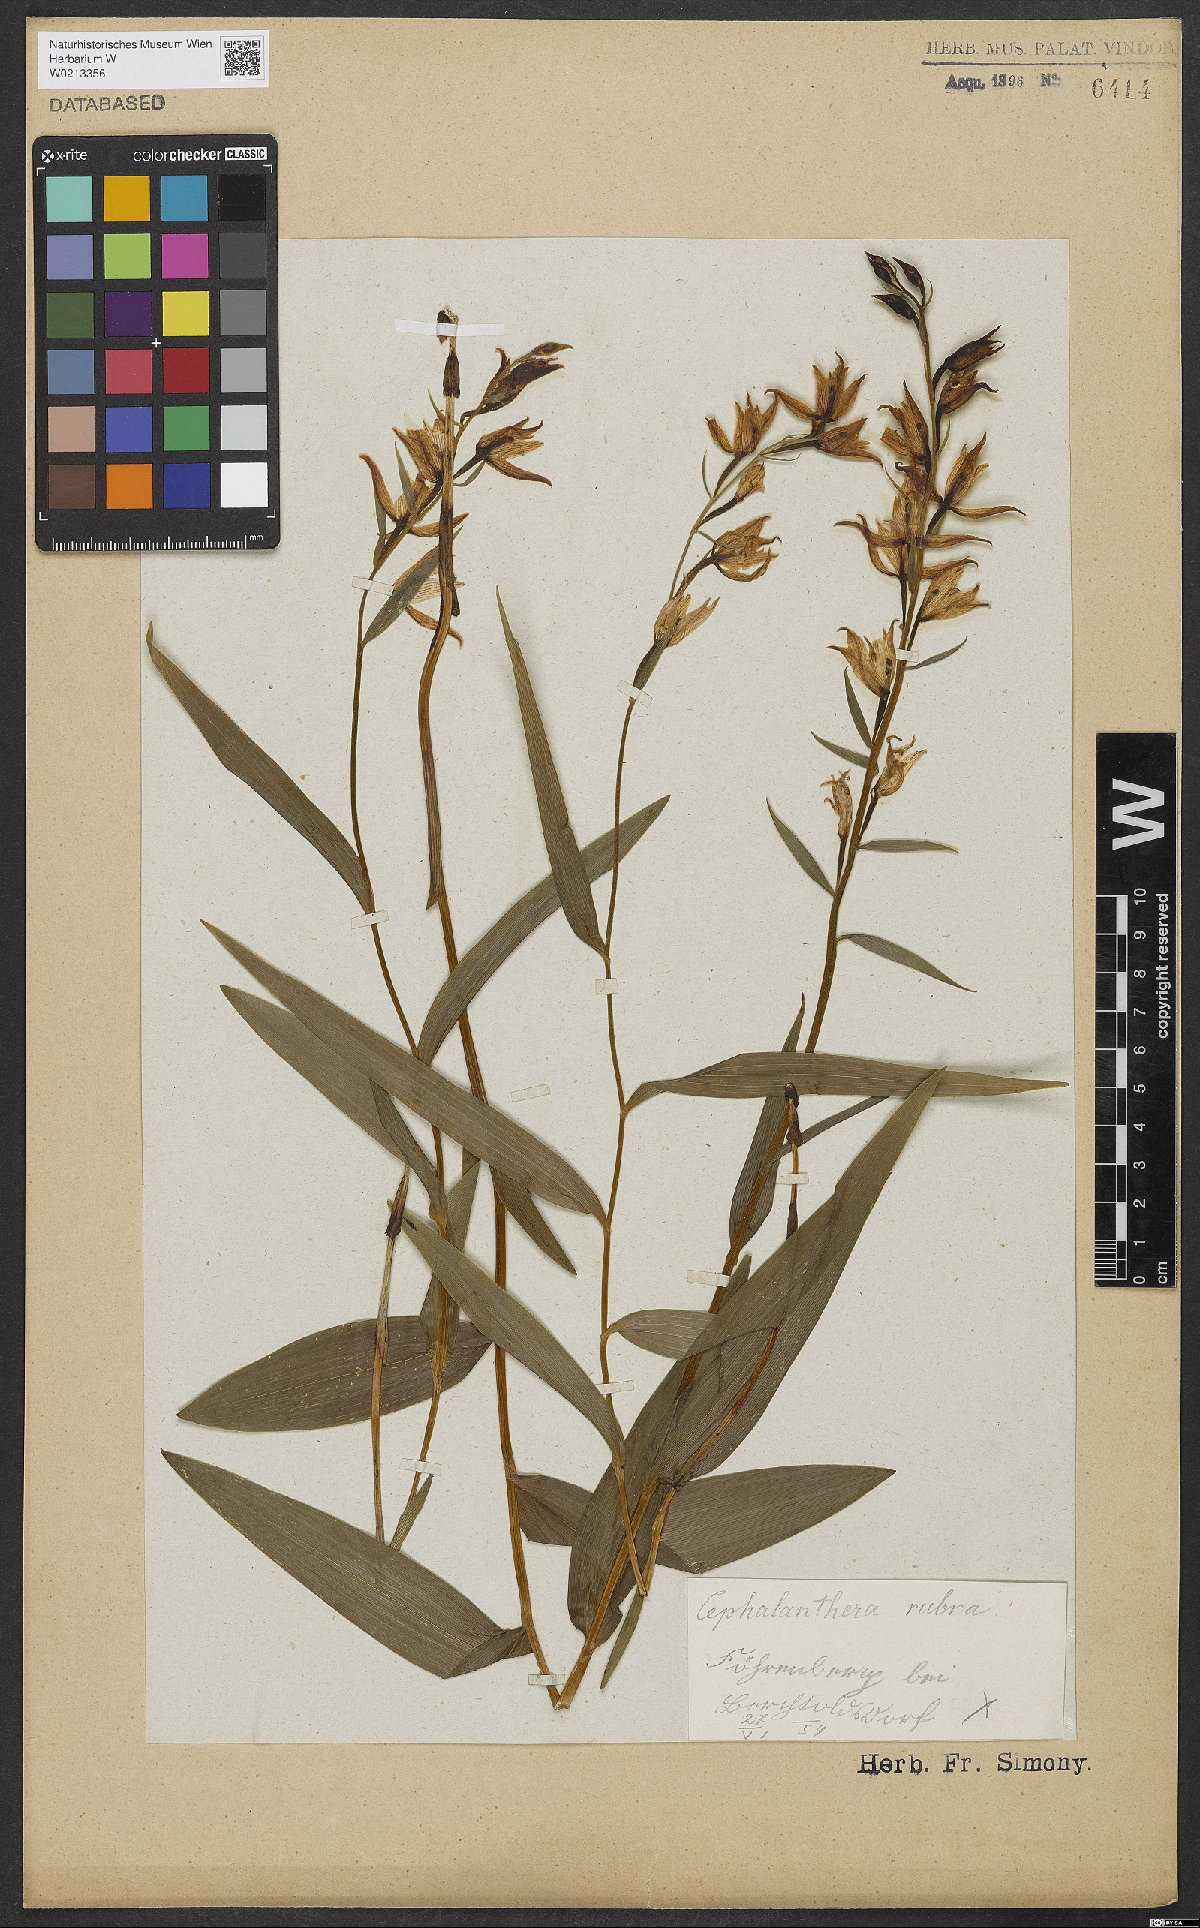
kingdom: Plantae
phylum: Tracheophyta
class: Liliopsida
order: Asparagales
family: Orchidaceae
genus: Cephalanthera
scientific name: Cephalanthera rubra
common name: Red helleborine
